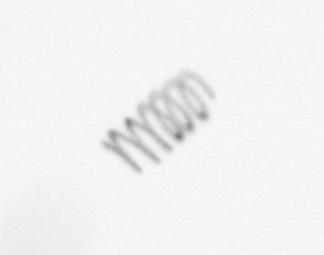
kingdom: Chromista
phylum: Ochrophyta
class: Bacillariophyceae
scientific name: Bacillariophyceae
